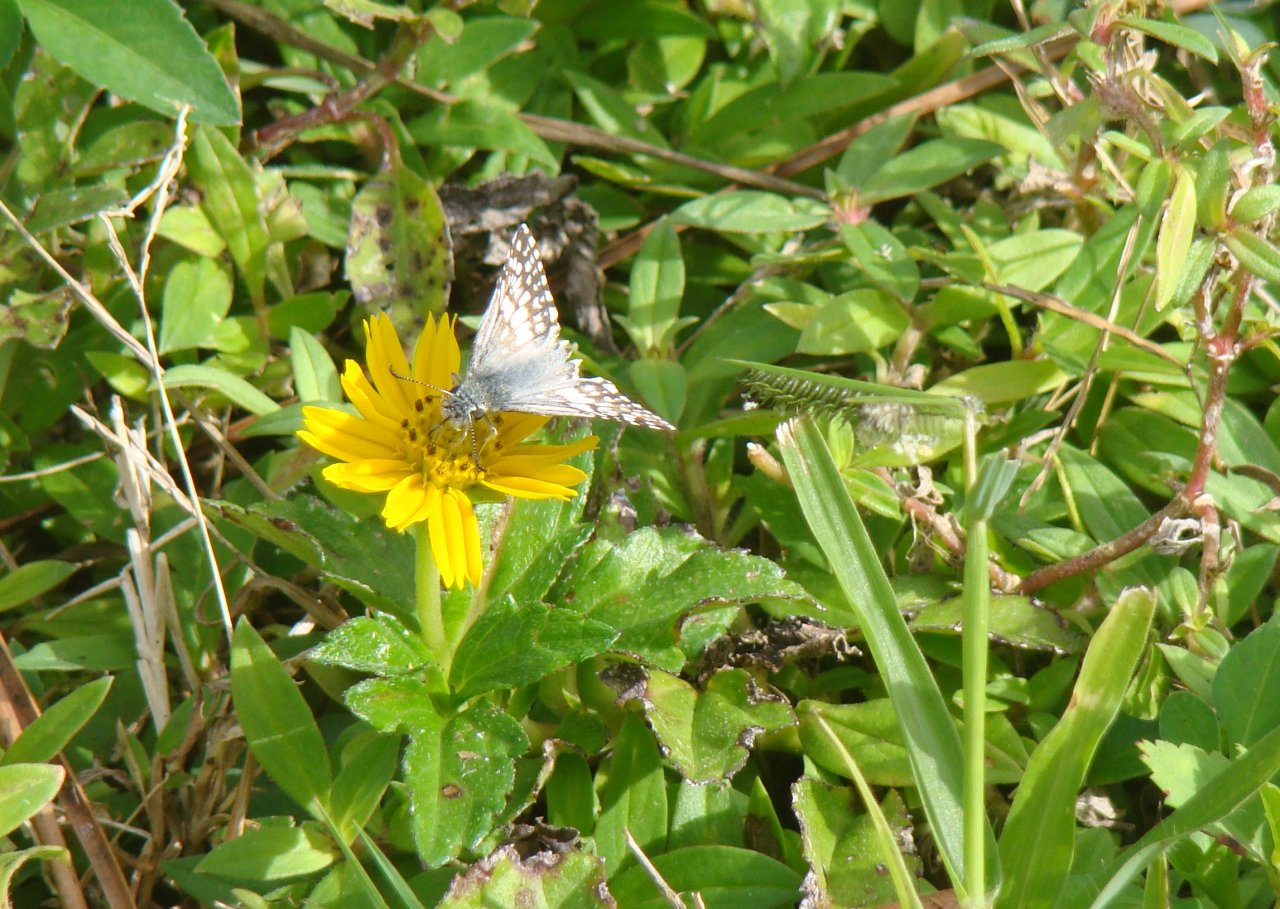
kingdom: Animalia
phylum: Arthropoda
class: Insecta
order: Lepidoptera
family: Pieridae
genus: Pontia
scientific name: Pontia protodice
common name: Checkered White
